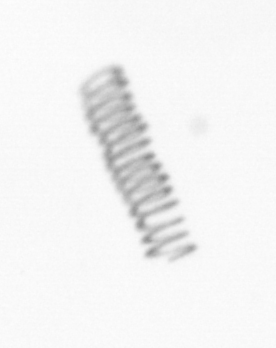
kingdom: Chromista
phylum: Ochrophyta
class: Bacillariophyceae
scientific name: Bacillariophyceae
